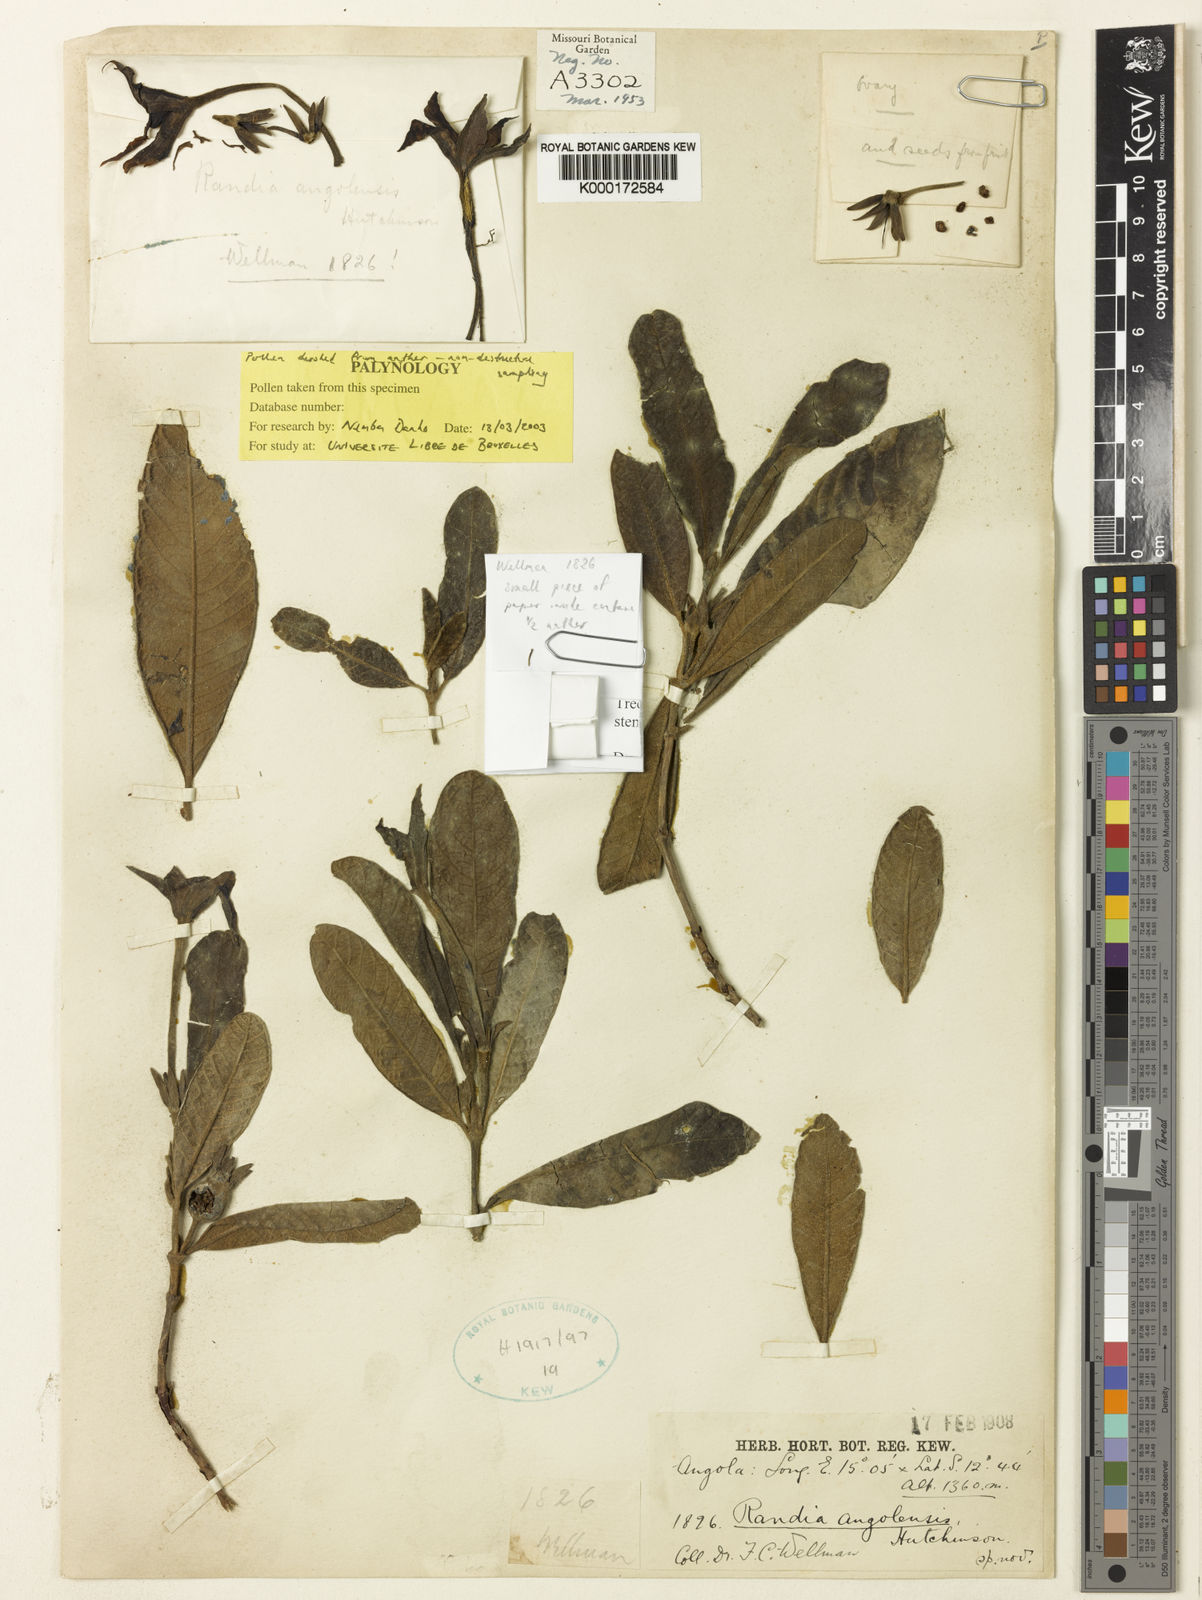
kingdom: Plantae
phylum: Tracheophyta
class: Magnoliopsida
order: Gentianales
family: Rubiaceae
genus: Leptactina
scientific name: Leptactina angolensis
